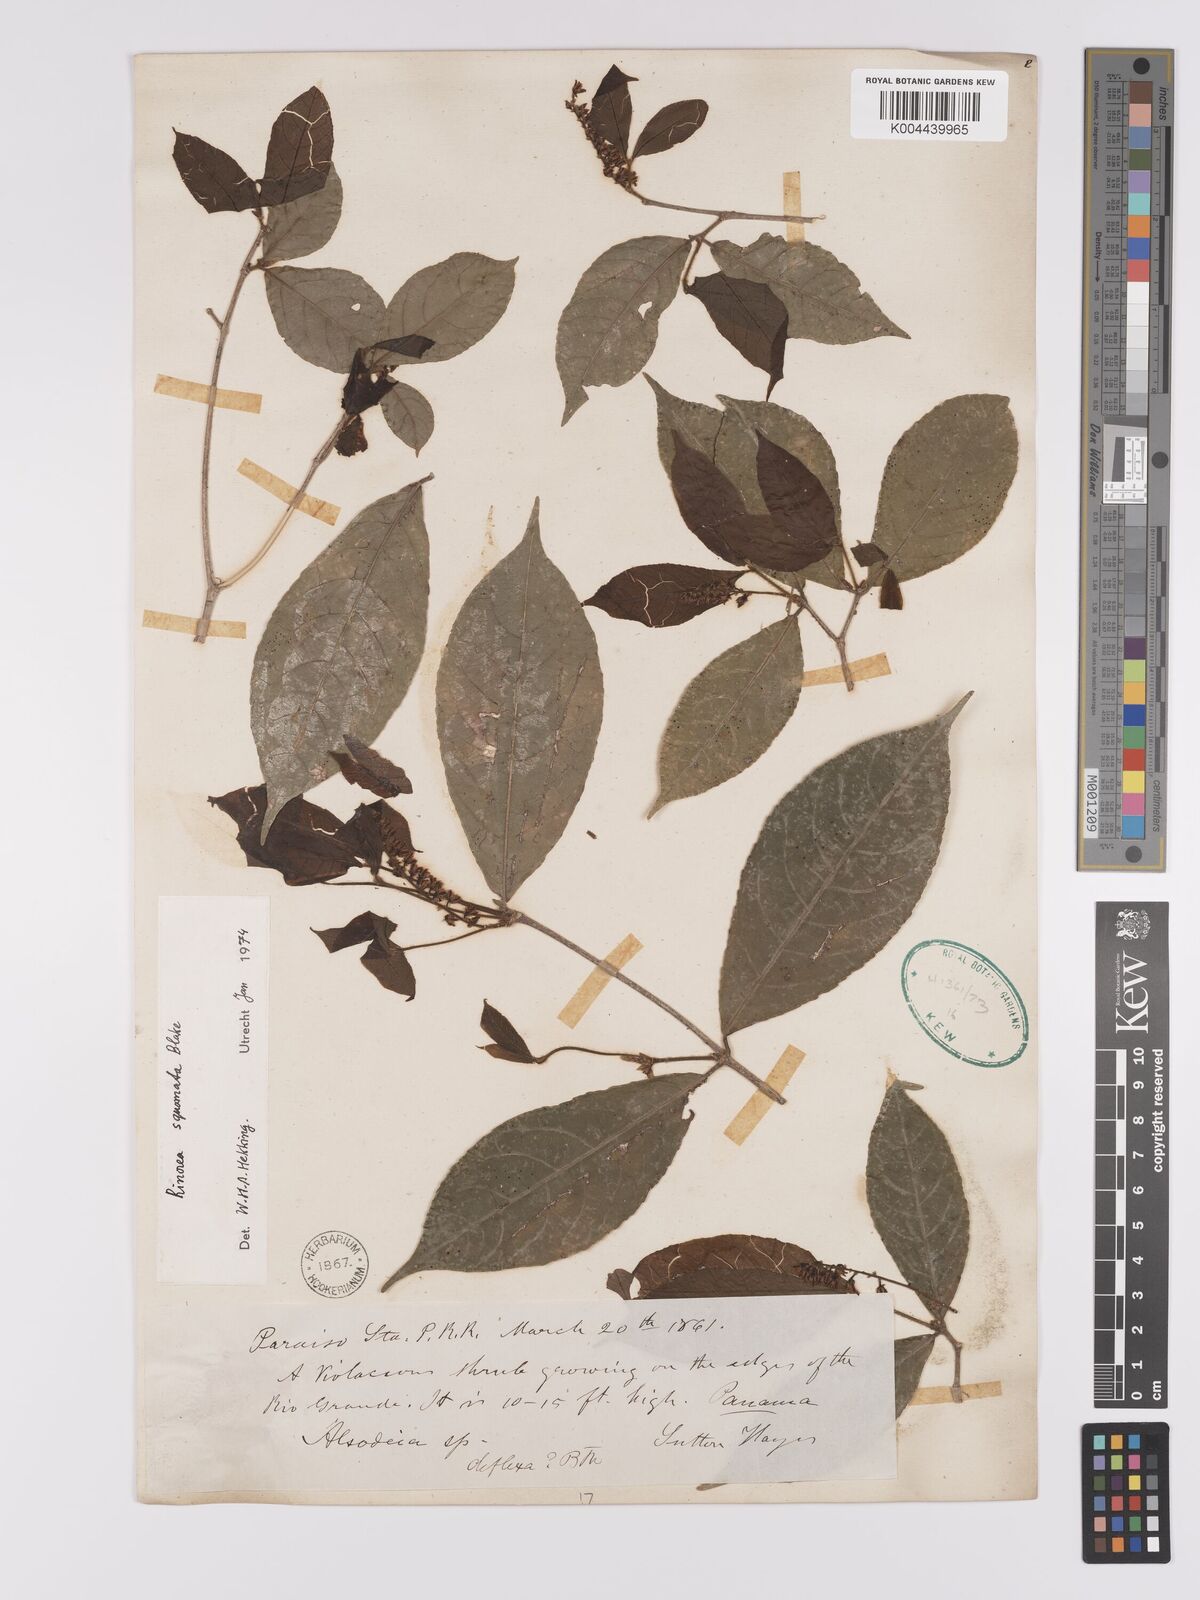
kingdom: Plantae
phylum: Tracheophyta
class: Magnoliopsida
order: Malpighiales
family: Violaceae
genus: Rinorea
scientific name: Rinorea squamata
